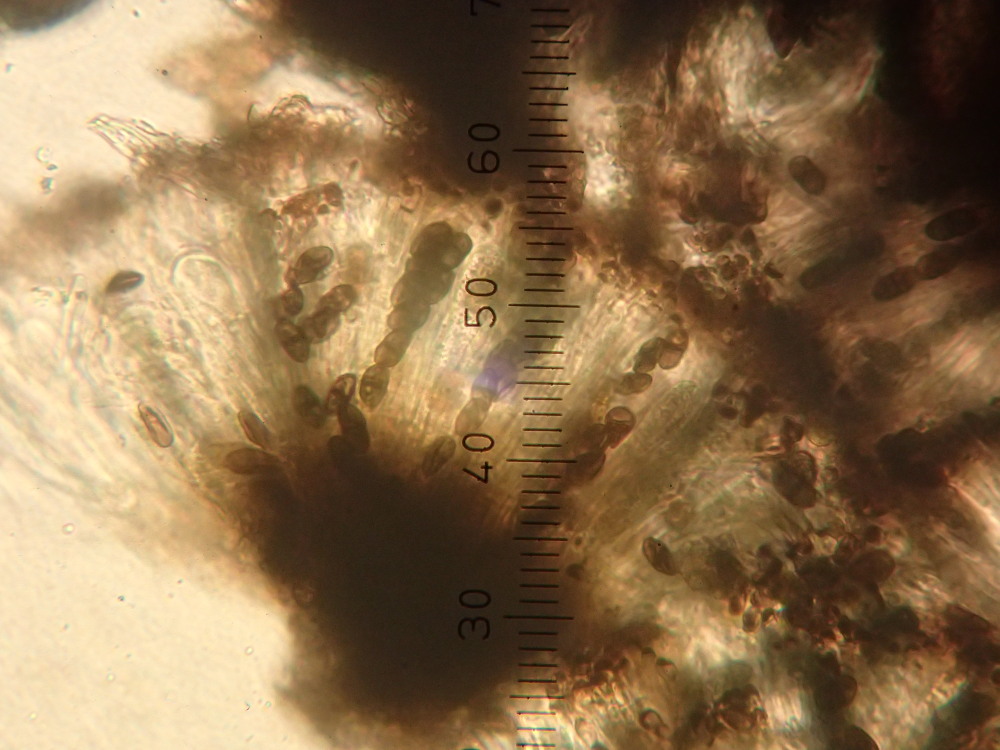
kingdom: Fungi
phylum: Ascomycota
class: Lecanoromycetes
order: Caliciales
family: Physciaceae
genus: Rinodina
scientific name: Rinodina oleae
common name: kyst-knaplav
